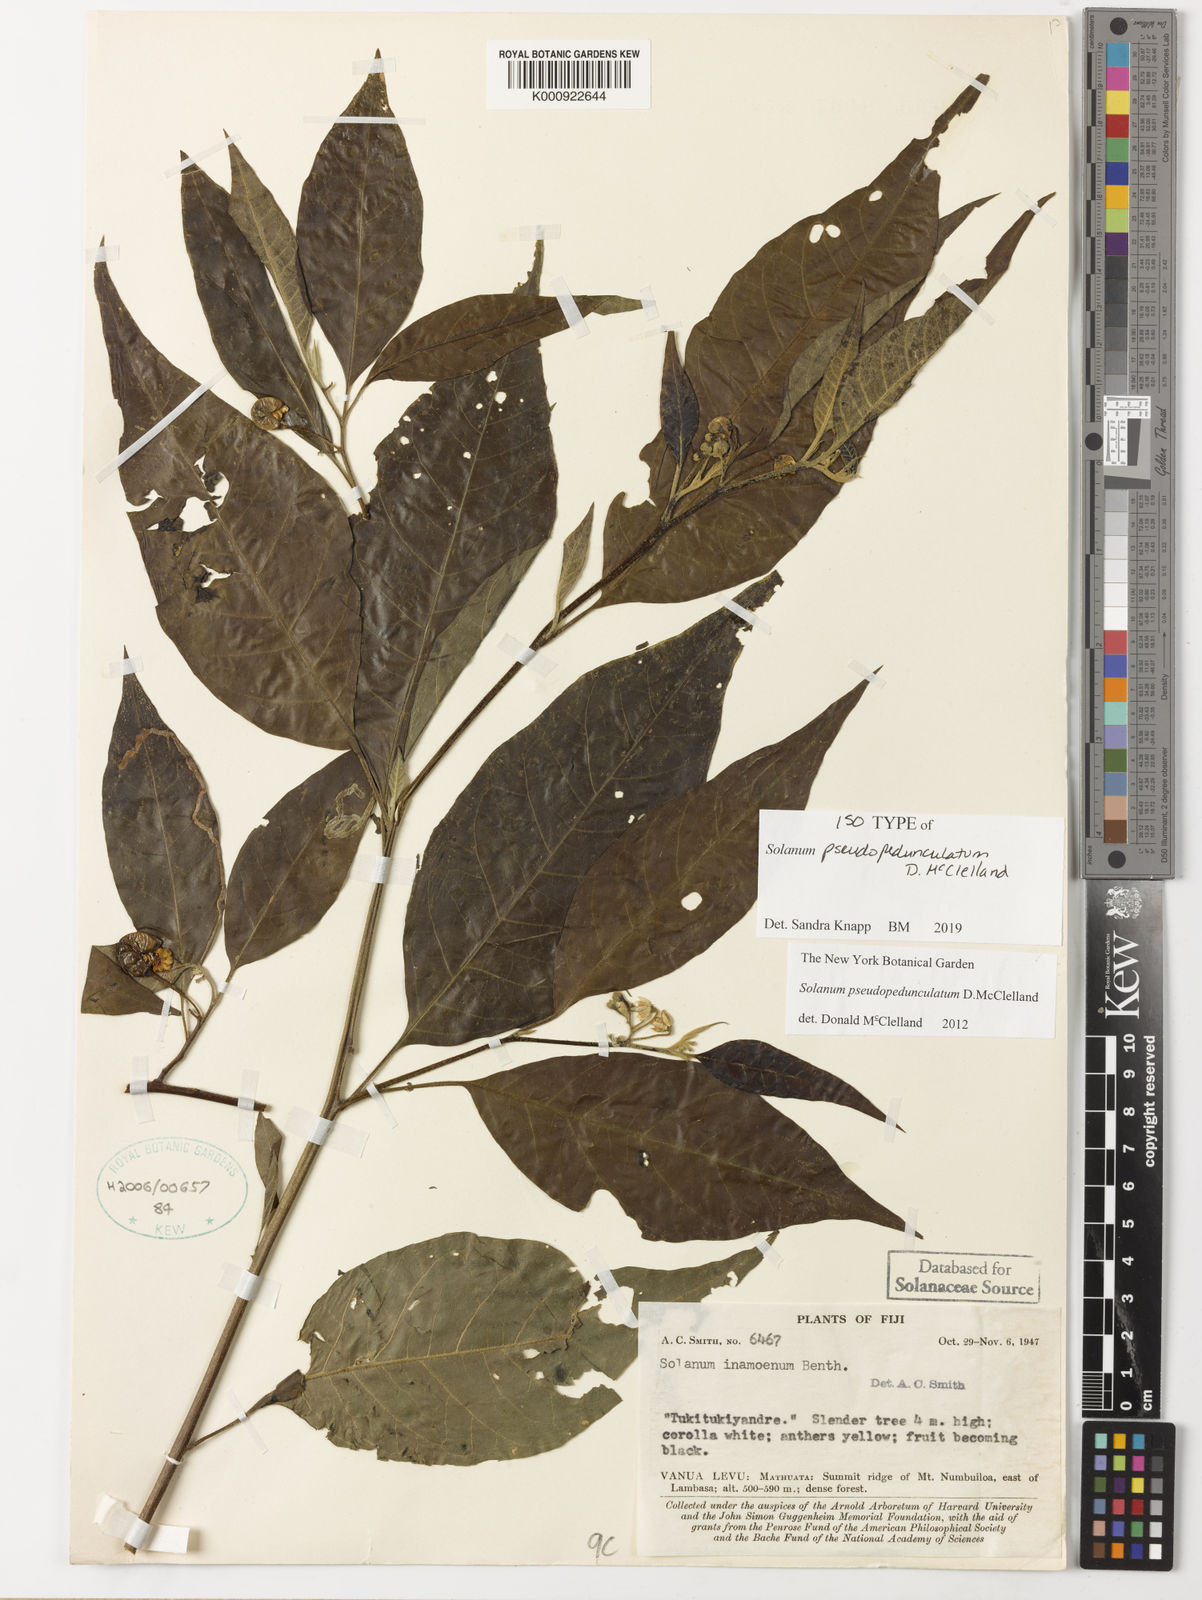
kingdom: Plantae
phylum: Tracheophyta
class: Magnoliopsida
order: Solanales
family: Solanaceae
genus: Solanum
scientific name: Solanum
